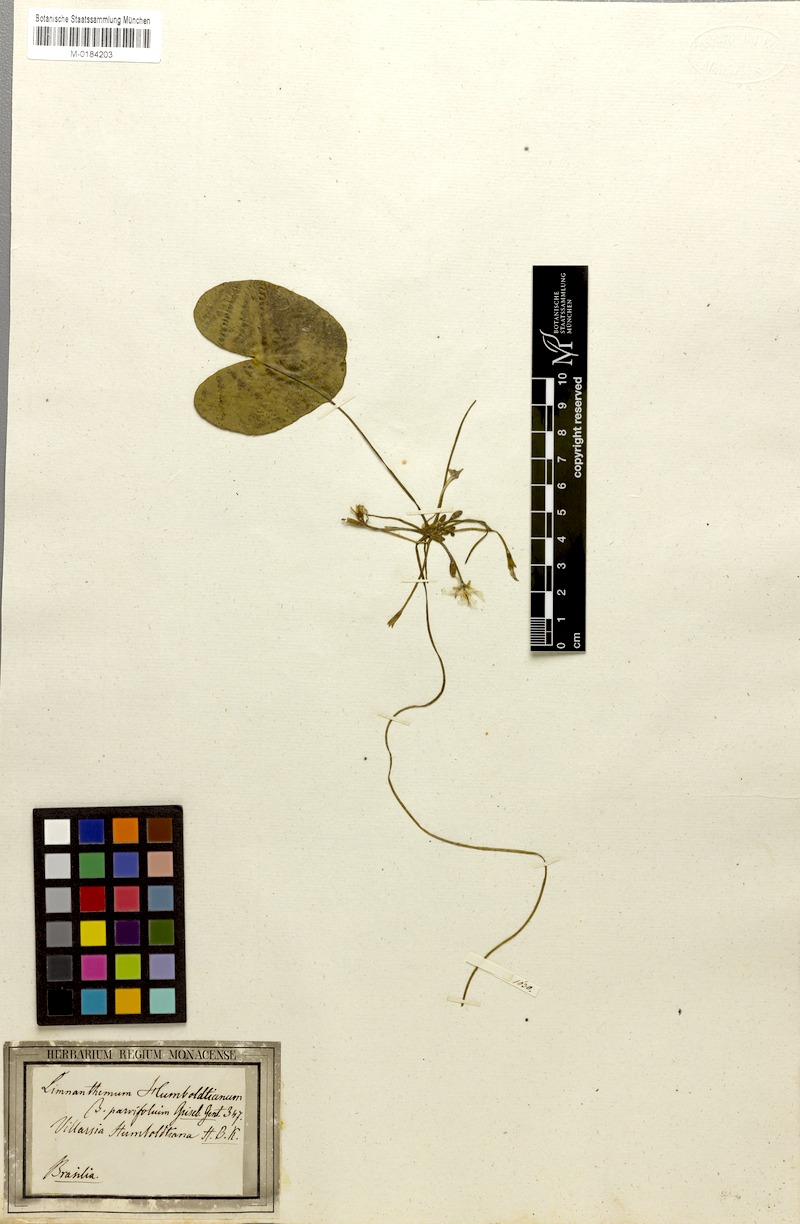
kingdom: Plantae
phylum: Tracheophyta
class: Magnoliopsida
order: Asterales
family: Menyanthaceae
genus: Nymphoides
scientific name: Nymphoides humboldtiana
